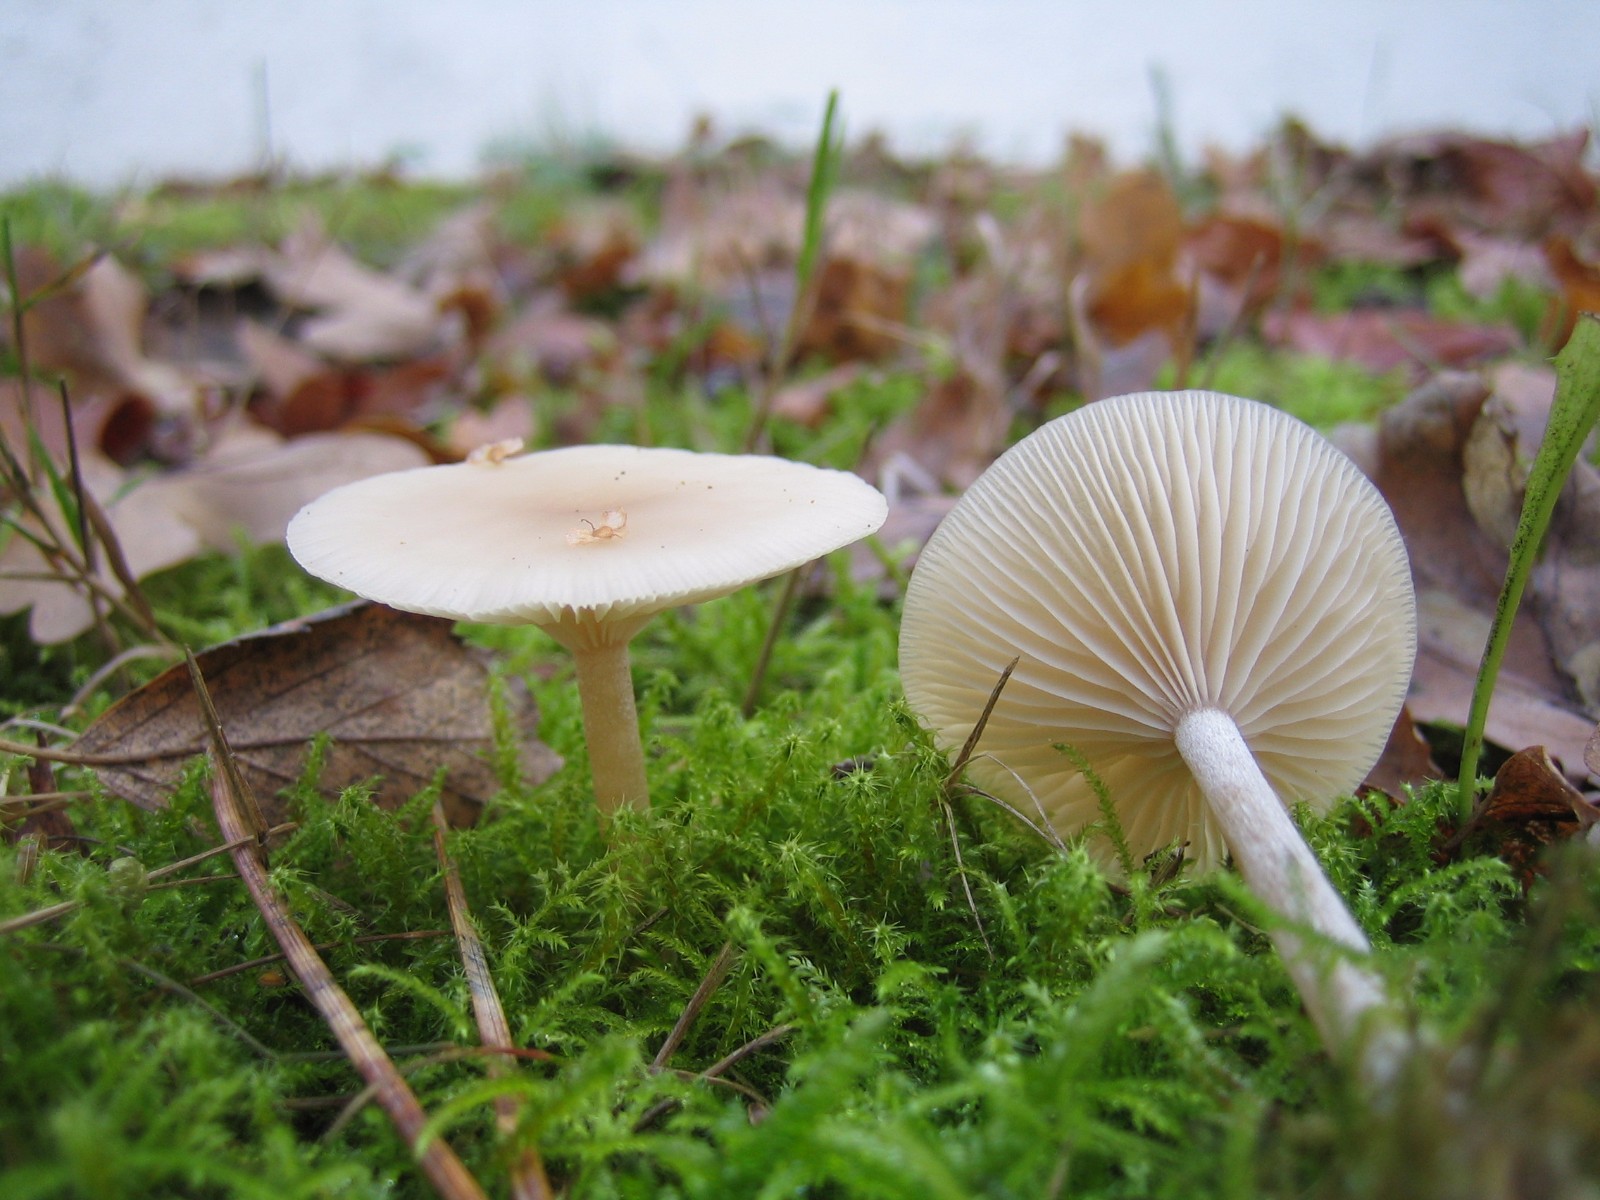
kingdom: Fungi
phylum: Basidiomycota
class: Agaricomycetes
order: Agaricales
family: Tricholomataceae
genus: Clitocybe
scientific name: Clitocybe fragrans
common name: vellugtende tragthat
